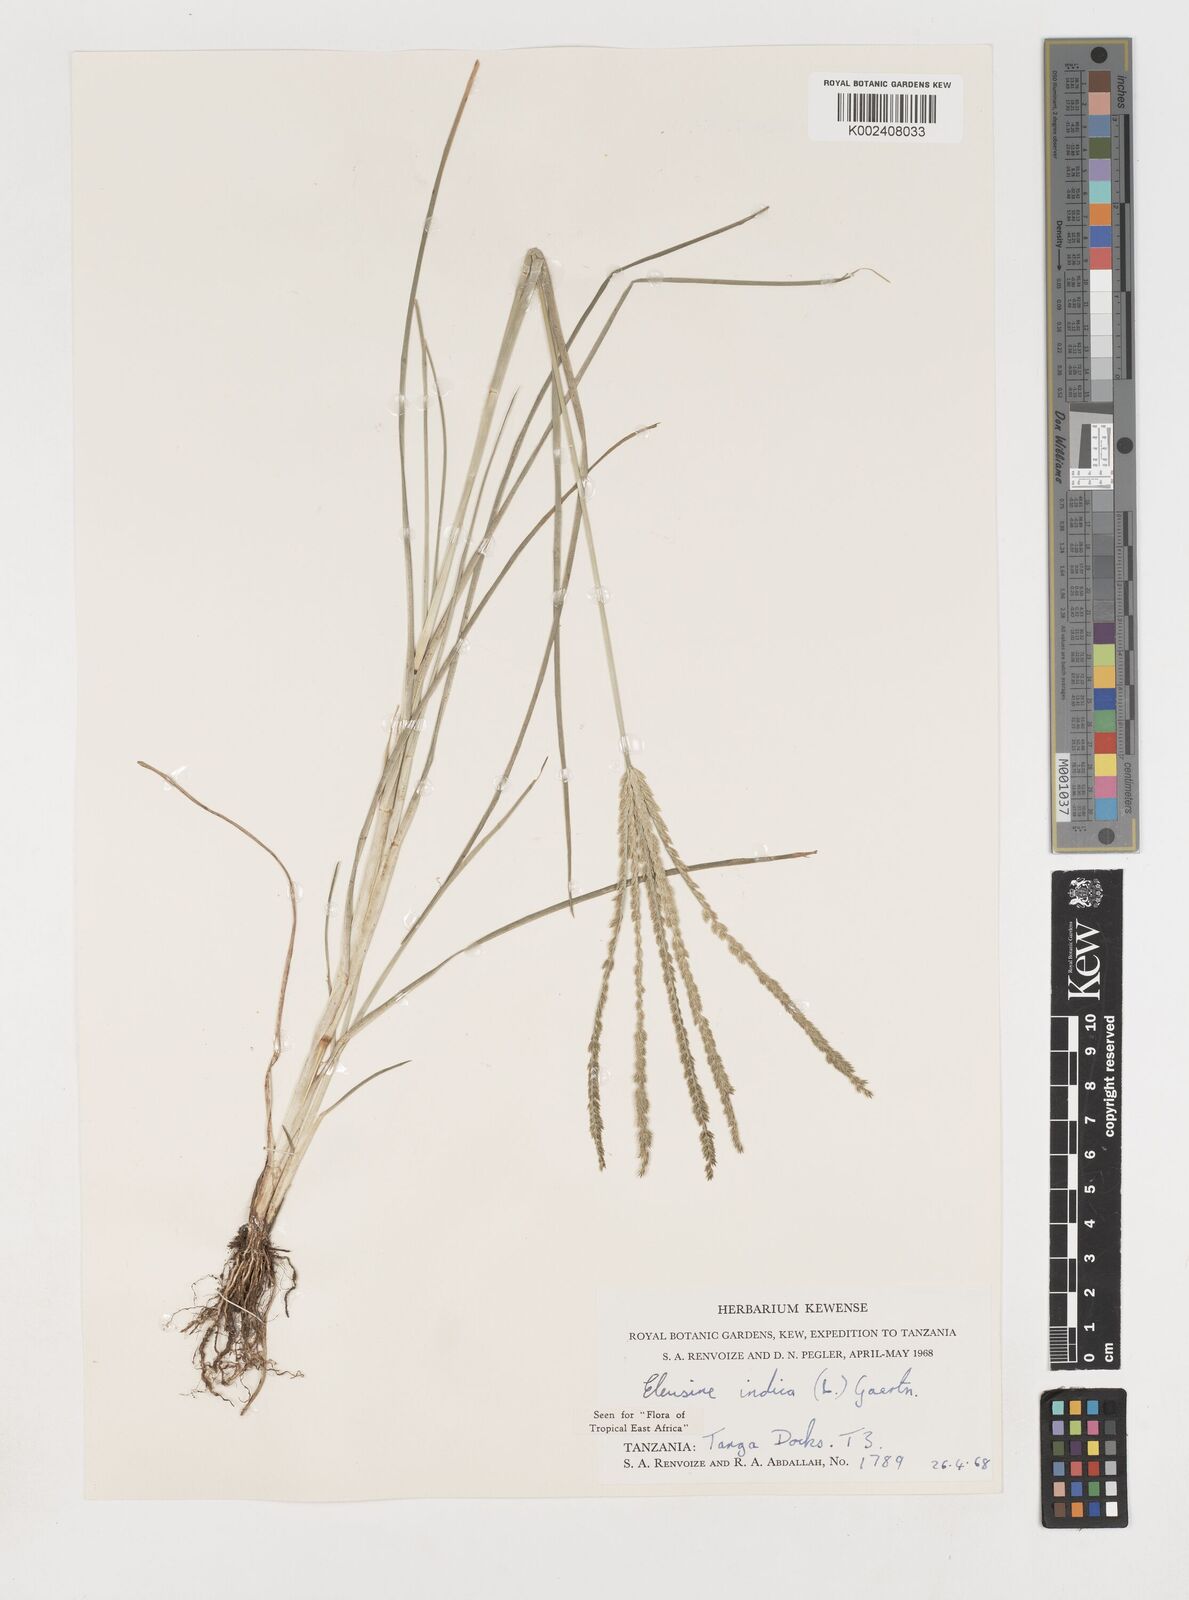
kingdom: Plantae
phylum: Tracheophyta
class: Liliopsida
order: Poales
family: Poaceae
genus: Eleusine
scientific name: Eleusine indica
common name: Yard-grass
